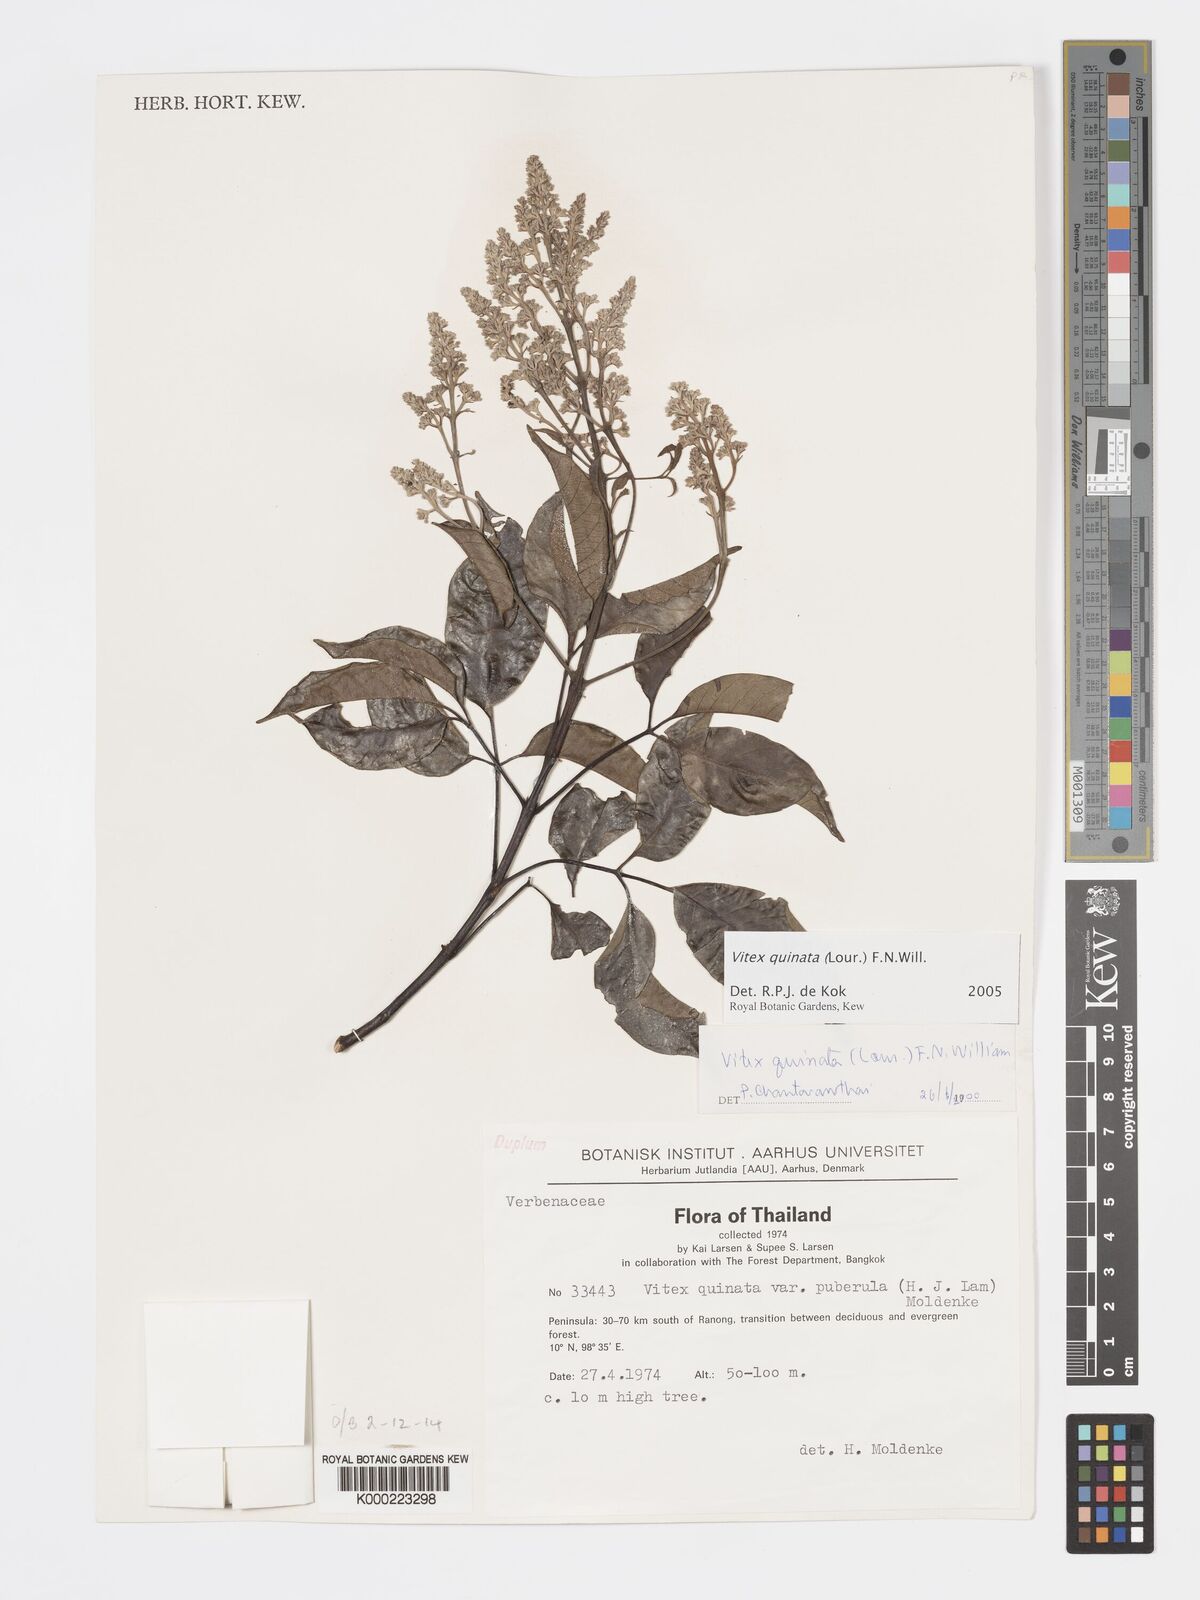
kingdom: Plantae
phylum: Tracheophyta
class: Magnoliopsida
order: Lamiales
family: Lamiaceae
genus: Vitex
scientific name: Vitex quinata
